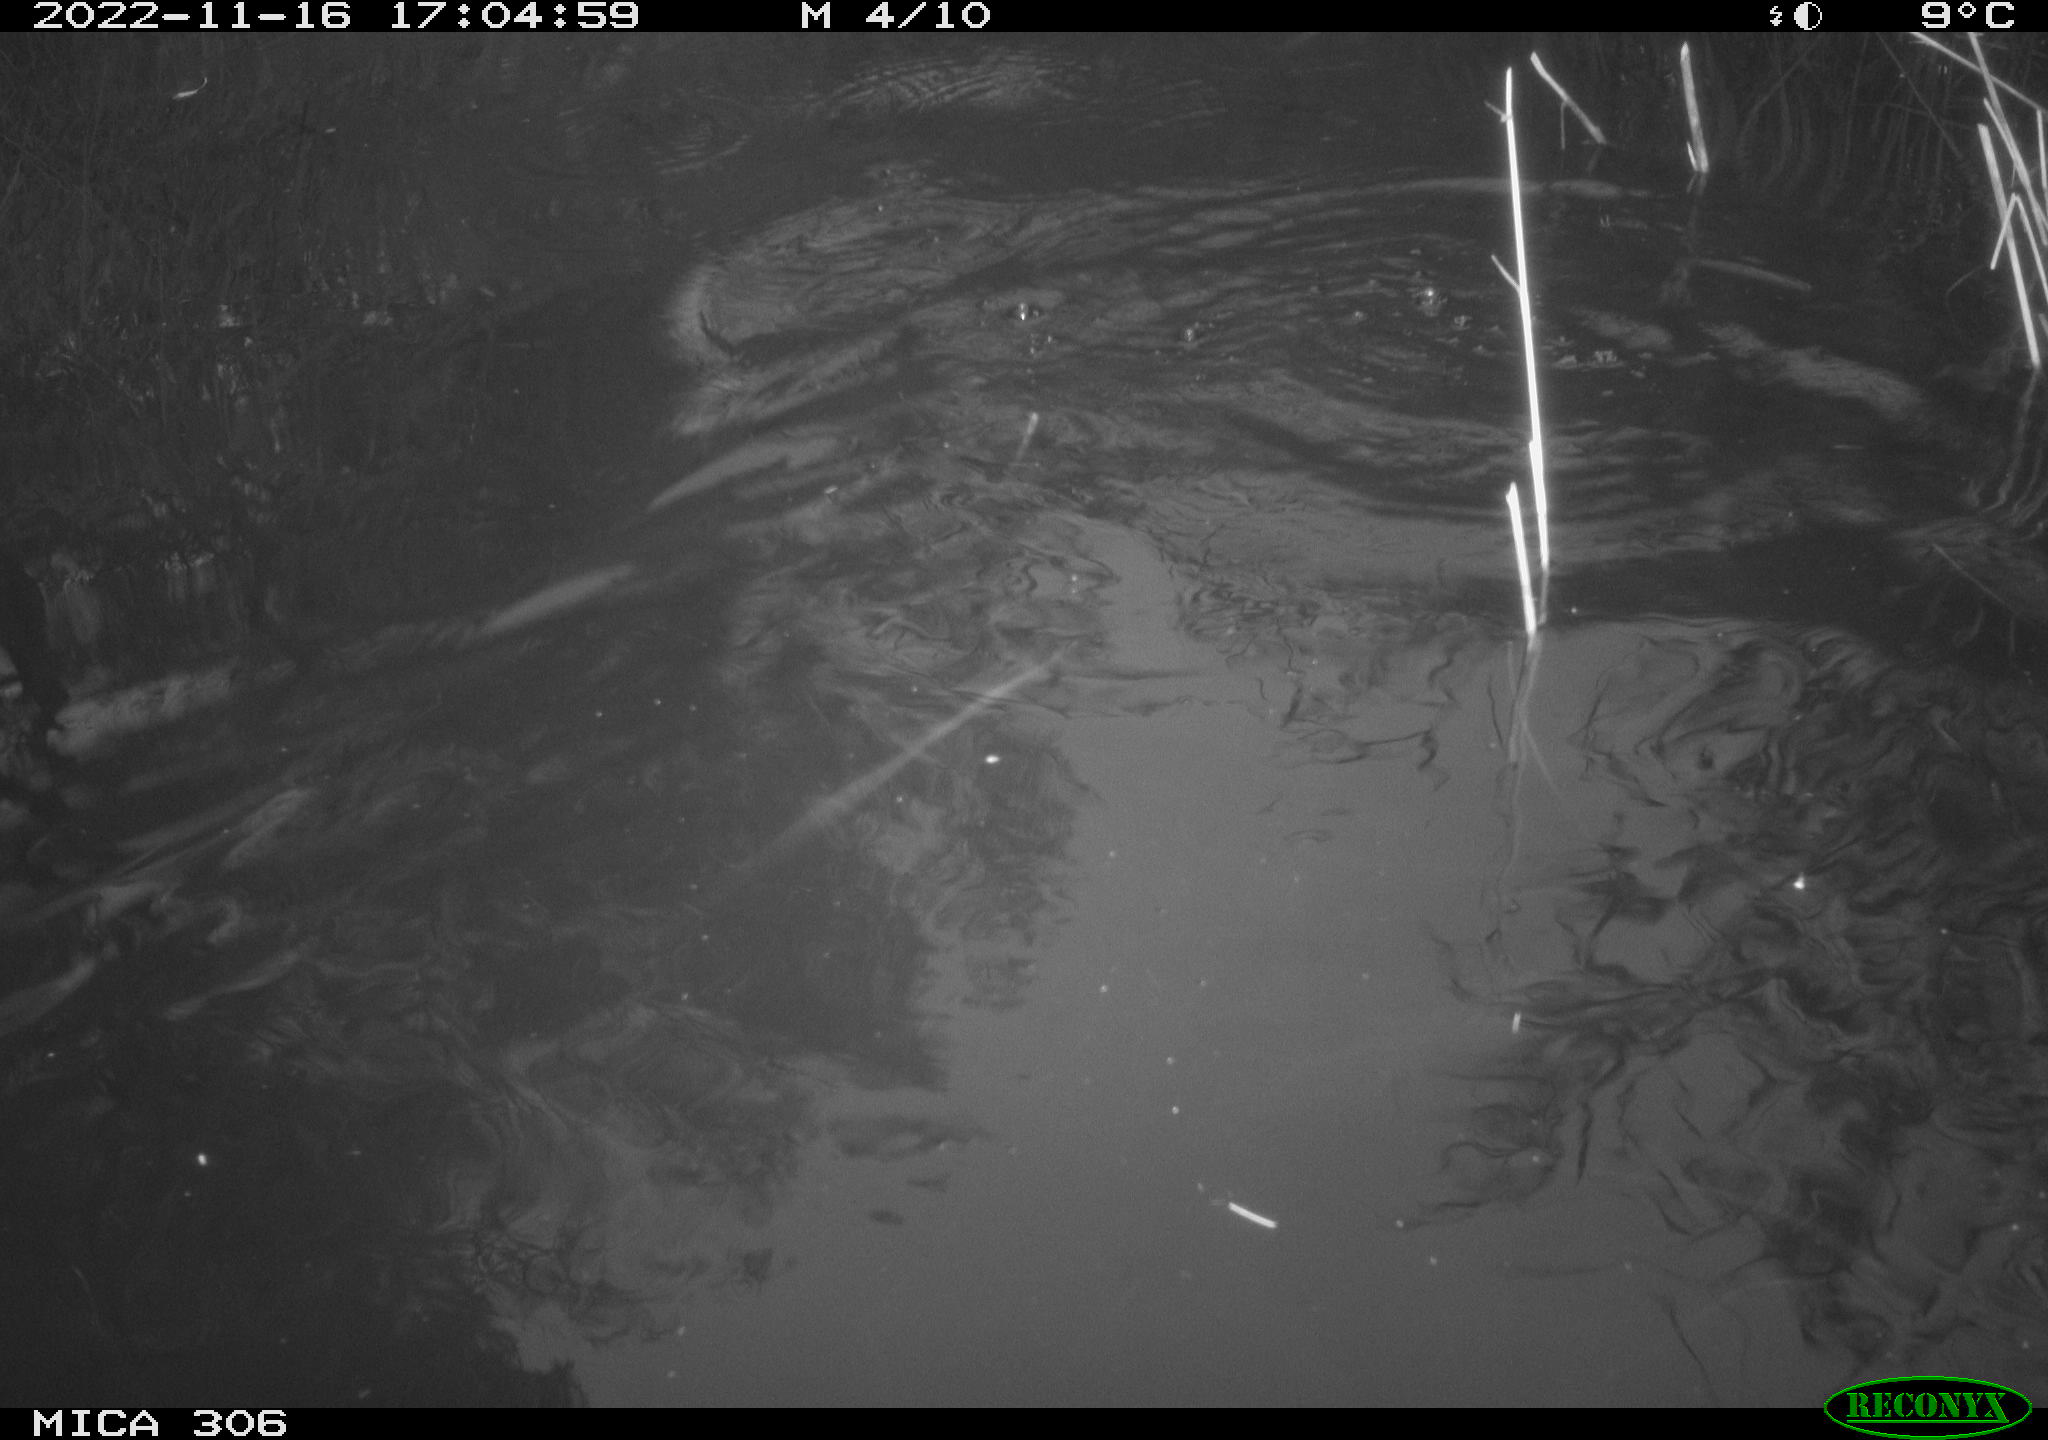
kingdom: Animalia
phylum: Chordata
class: Mammalia
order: Rodentia
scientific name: Rodentia
